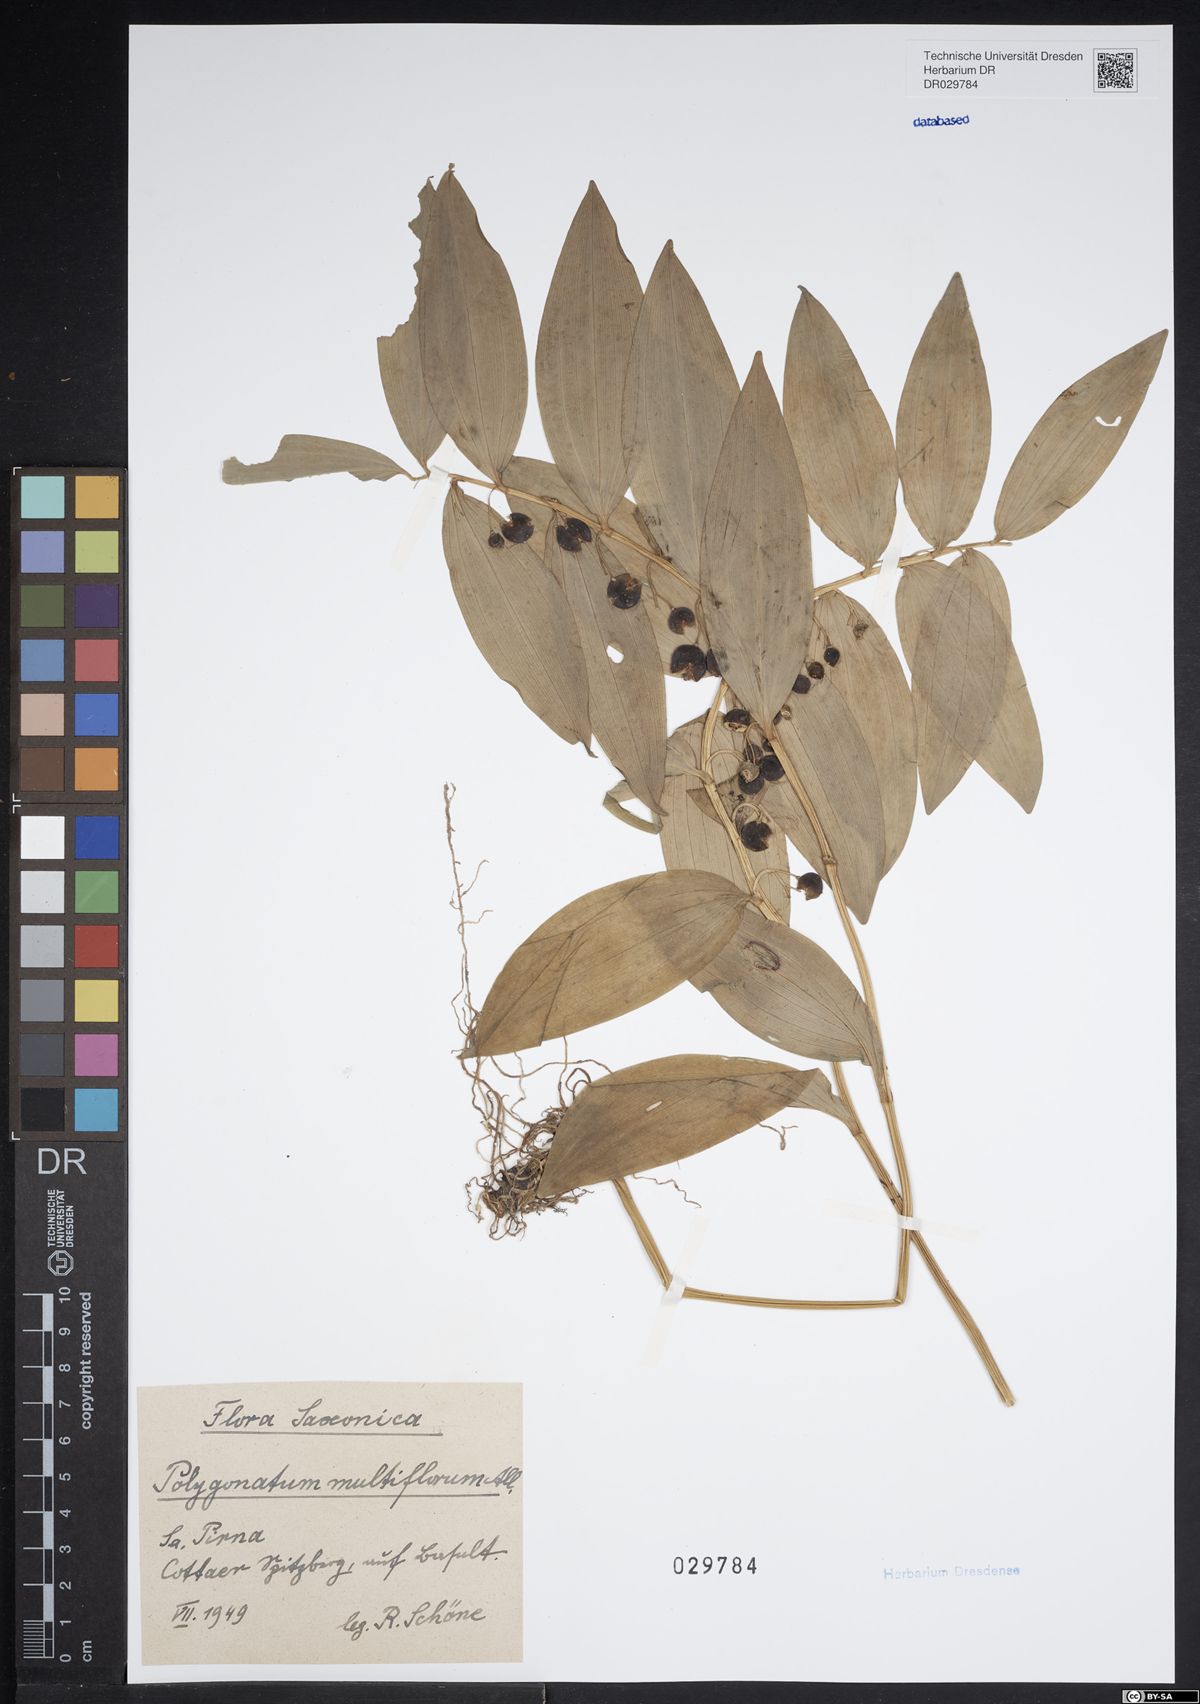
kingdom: Plantae
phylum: Tracheophyta
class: Liliopsida
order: Asparagales
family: Asparagaceae
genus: Polygonatum
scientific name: Polygonatum multiflorum
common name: Solomon's-seal
